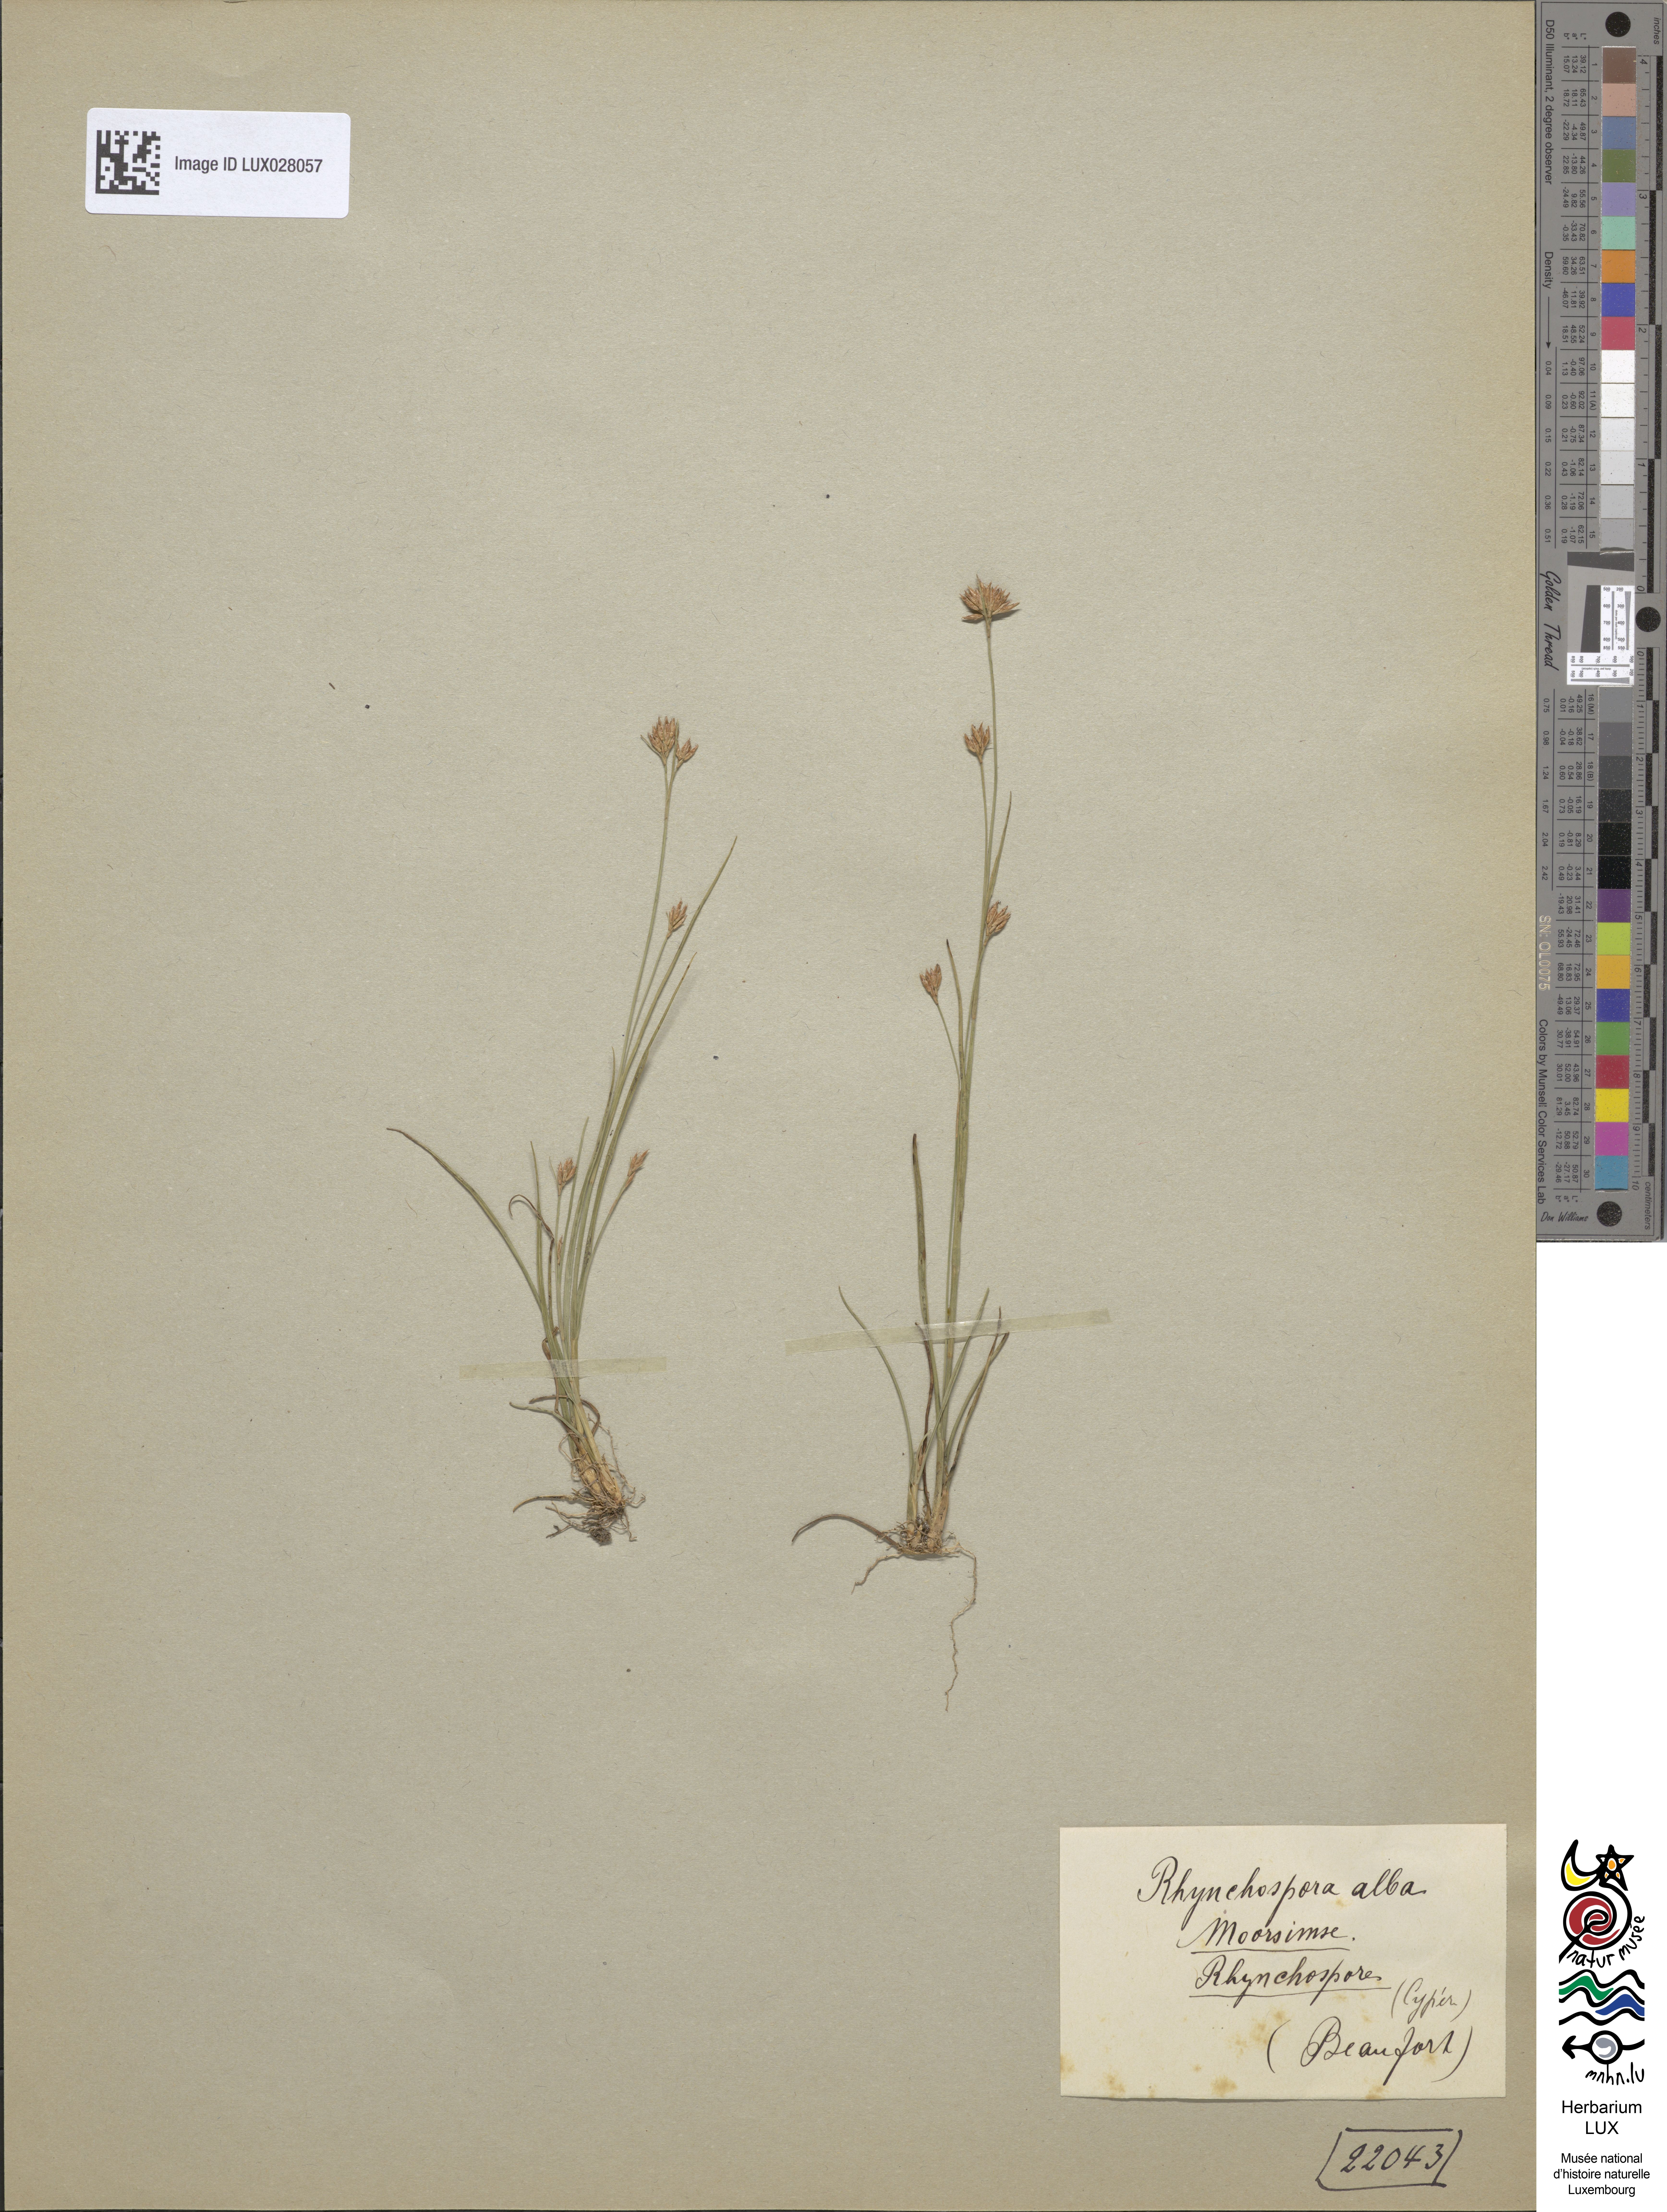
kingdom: Plantae
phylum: Tracheophyta
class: Liliopsida
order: Poales
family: Cyperaceae
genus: Rhynchospora
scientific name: Rhynchospora alba
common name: White beak-sedge
